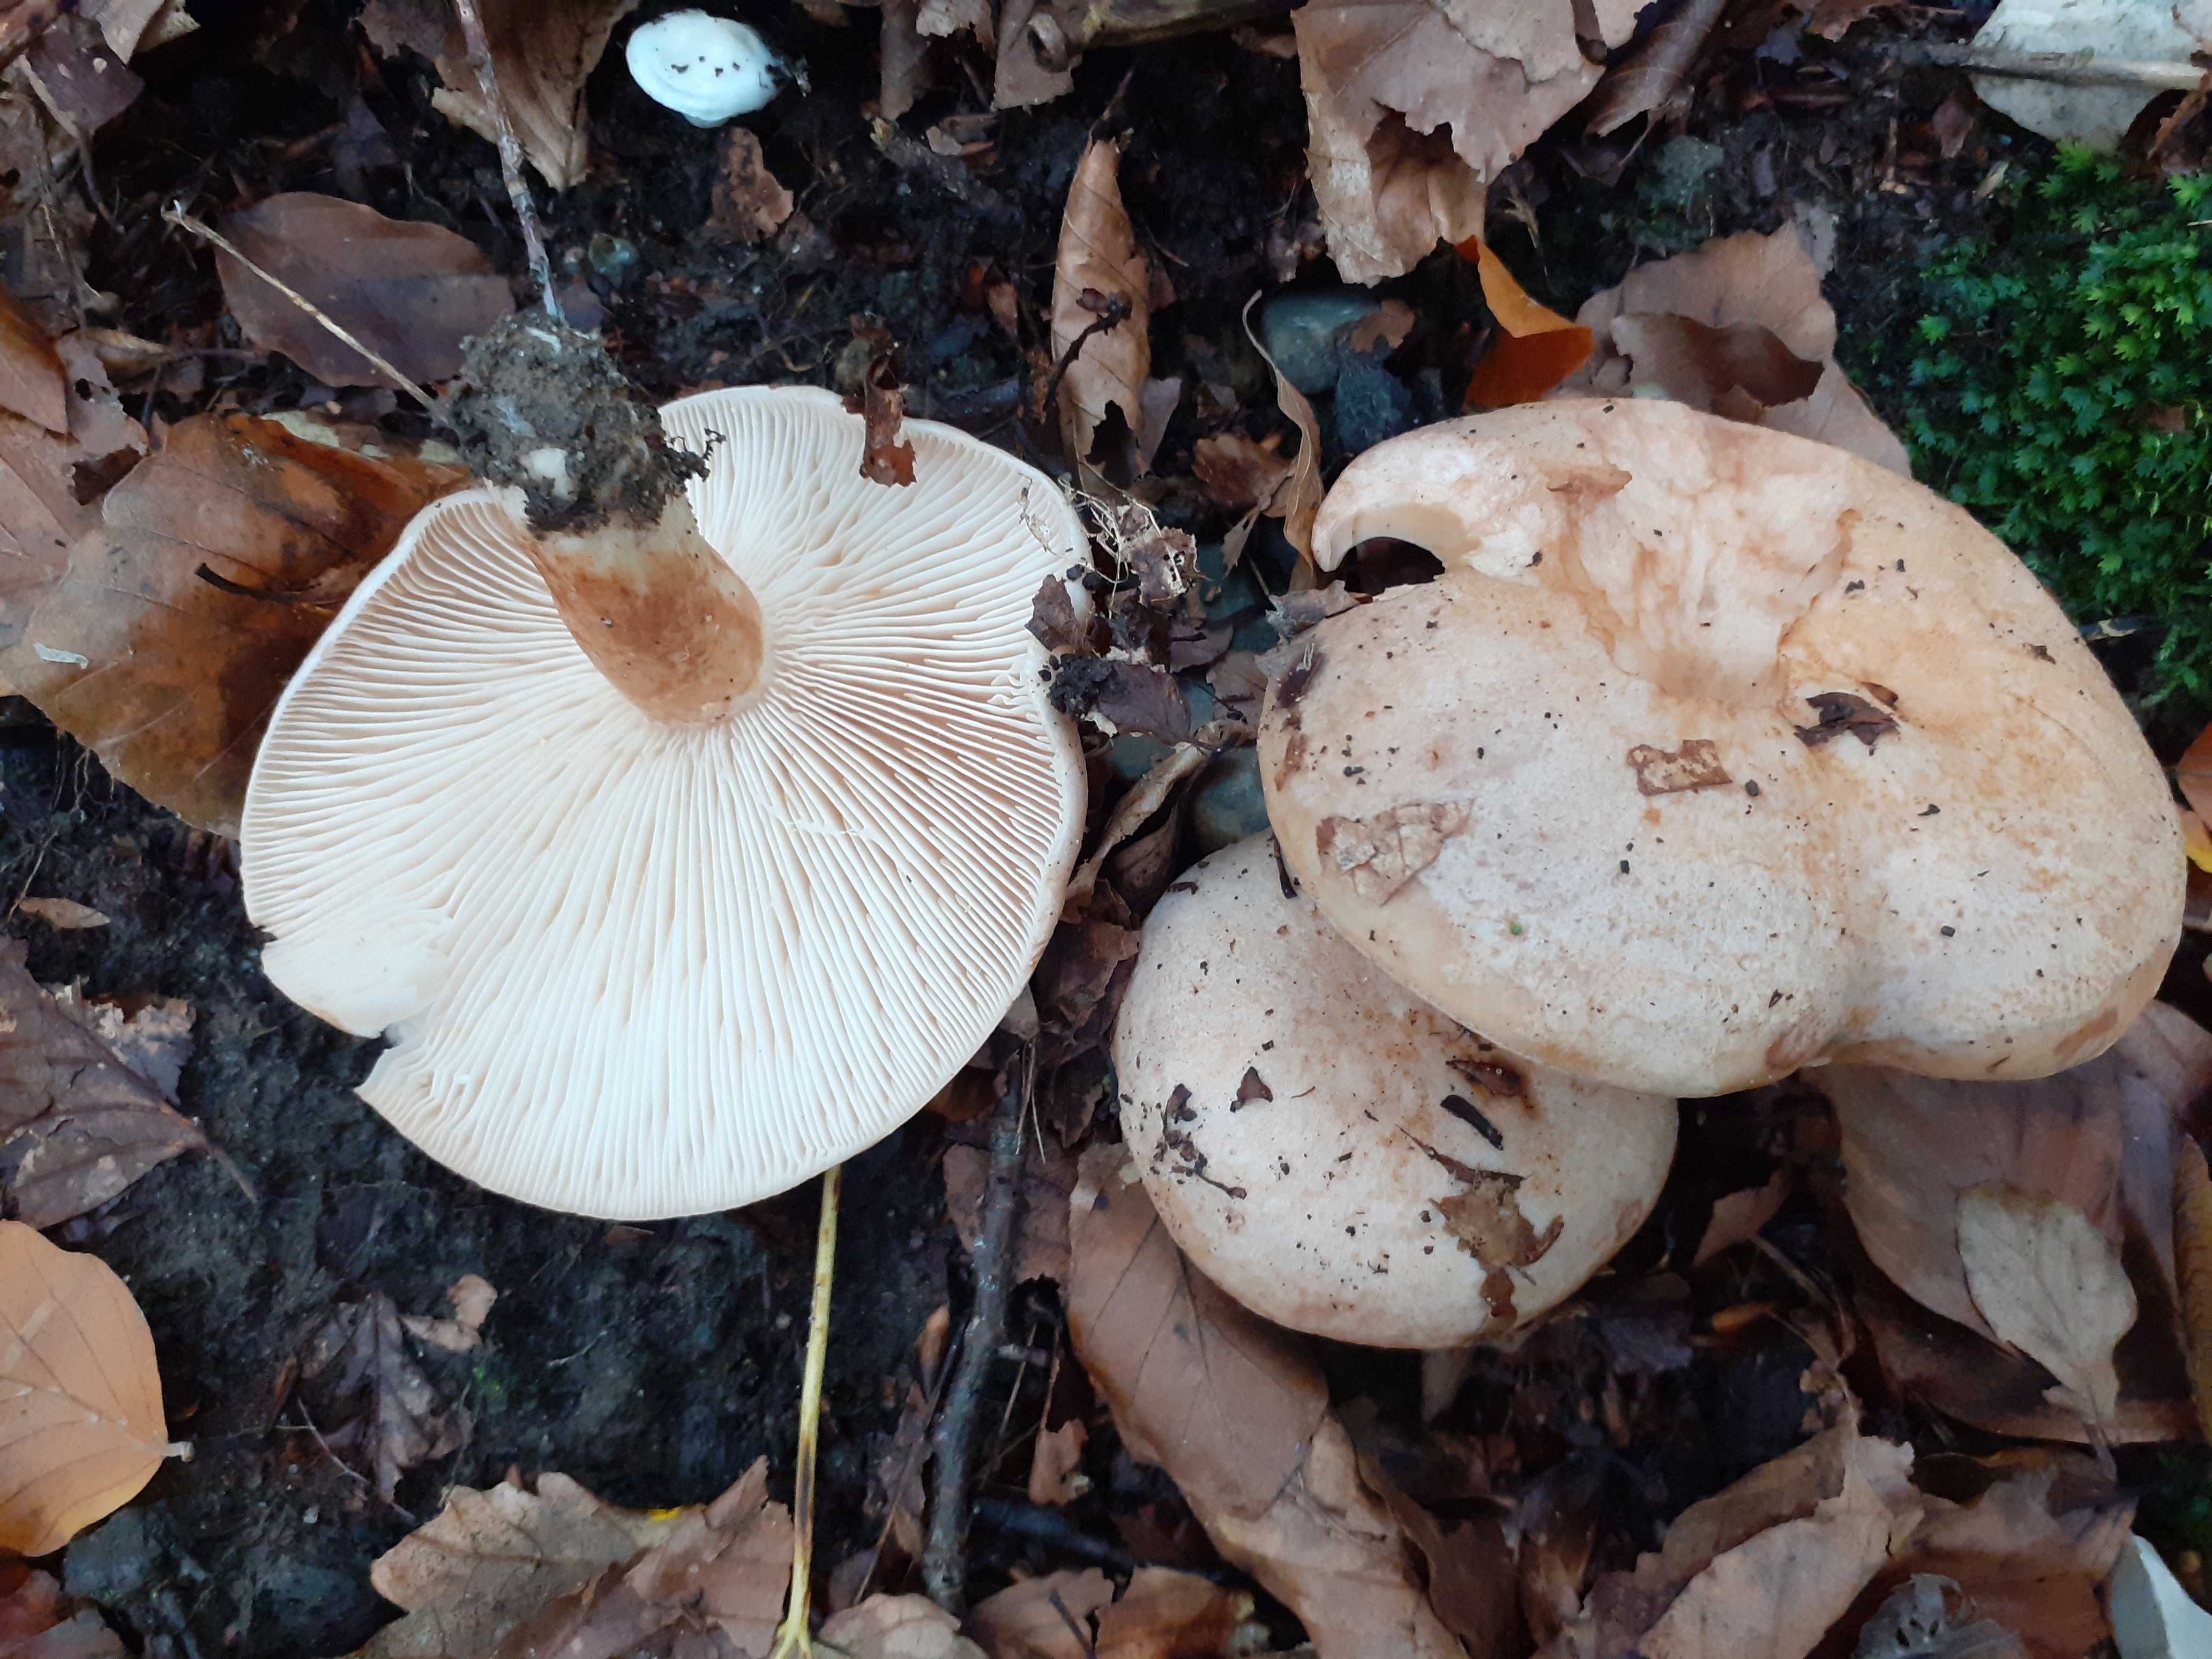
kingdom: Fungi
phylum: Basidiomycota
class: Agaricomycetes
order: Russulales
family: Russulaceae
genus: Lactarius
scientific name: Lactarius pallidus
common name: bleg mælkehat
